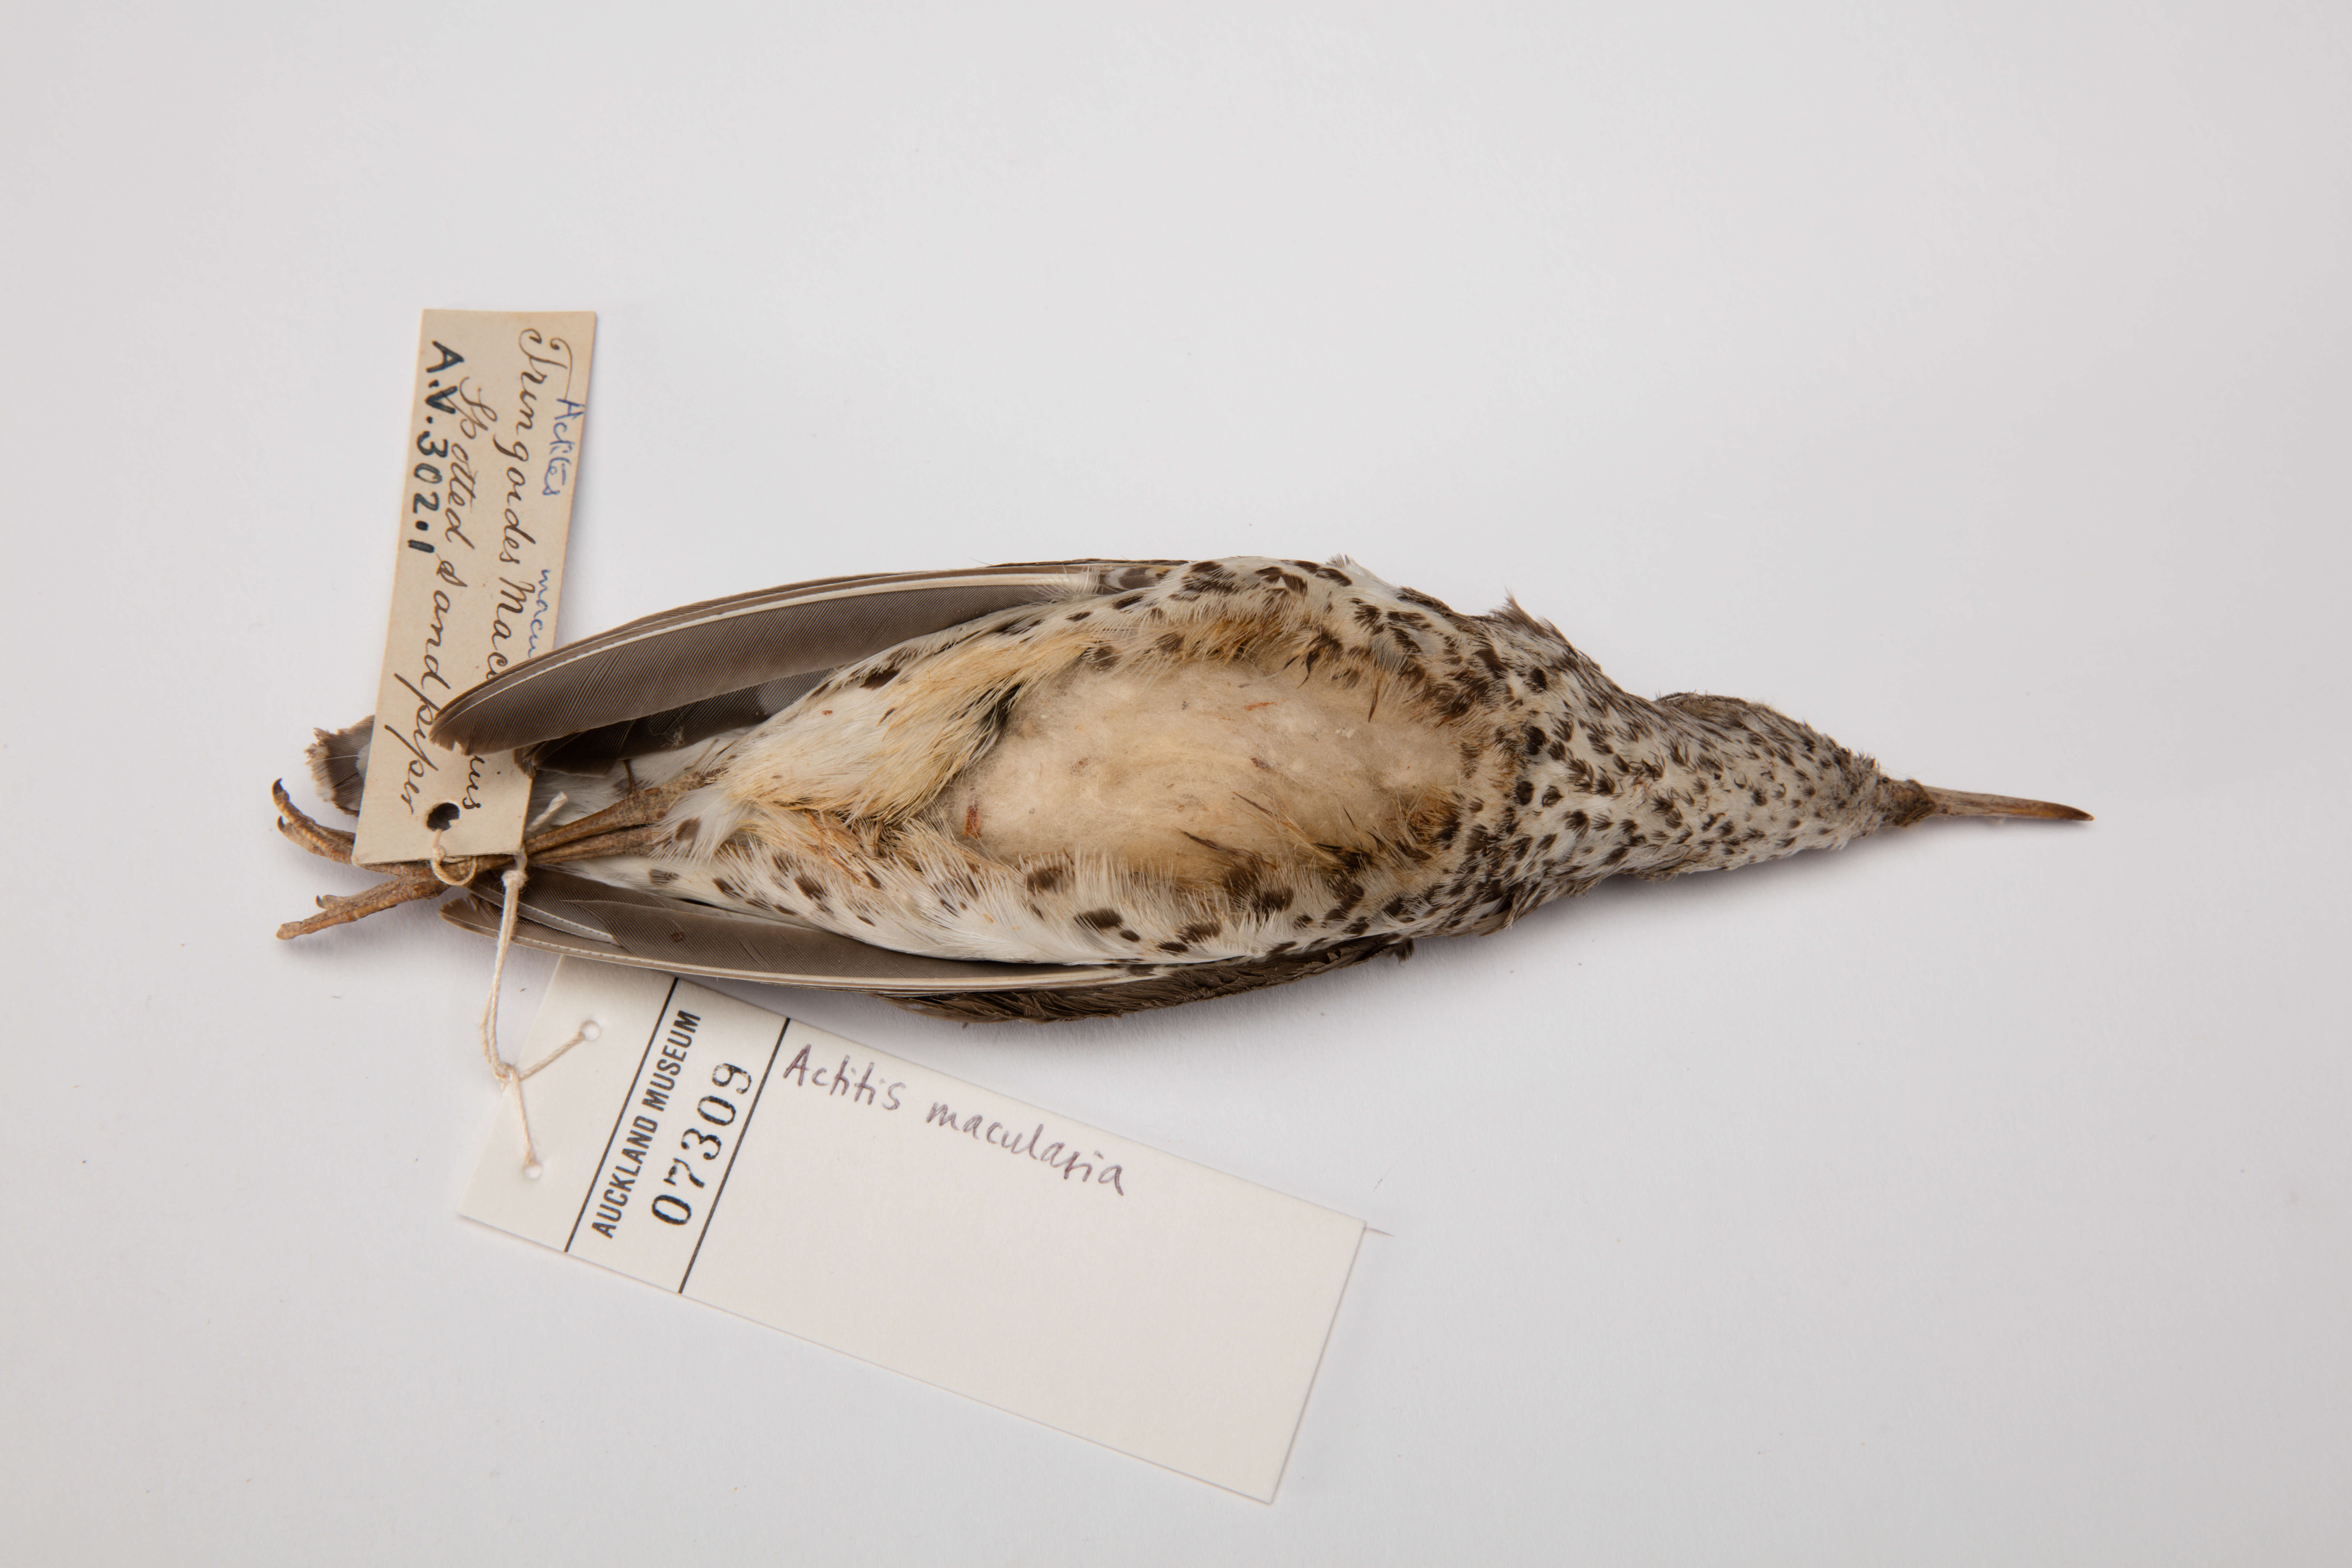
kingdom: Animalia
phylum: Chordata
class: Aves
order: Charadriiformes
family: Scolopacidae
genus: Actitis
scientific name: Actitis macularius
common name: Spotted sandpiper
